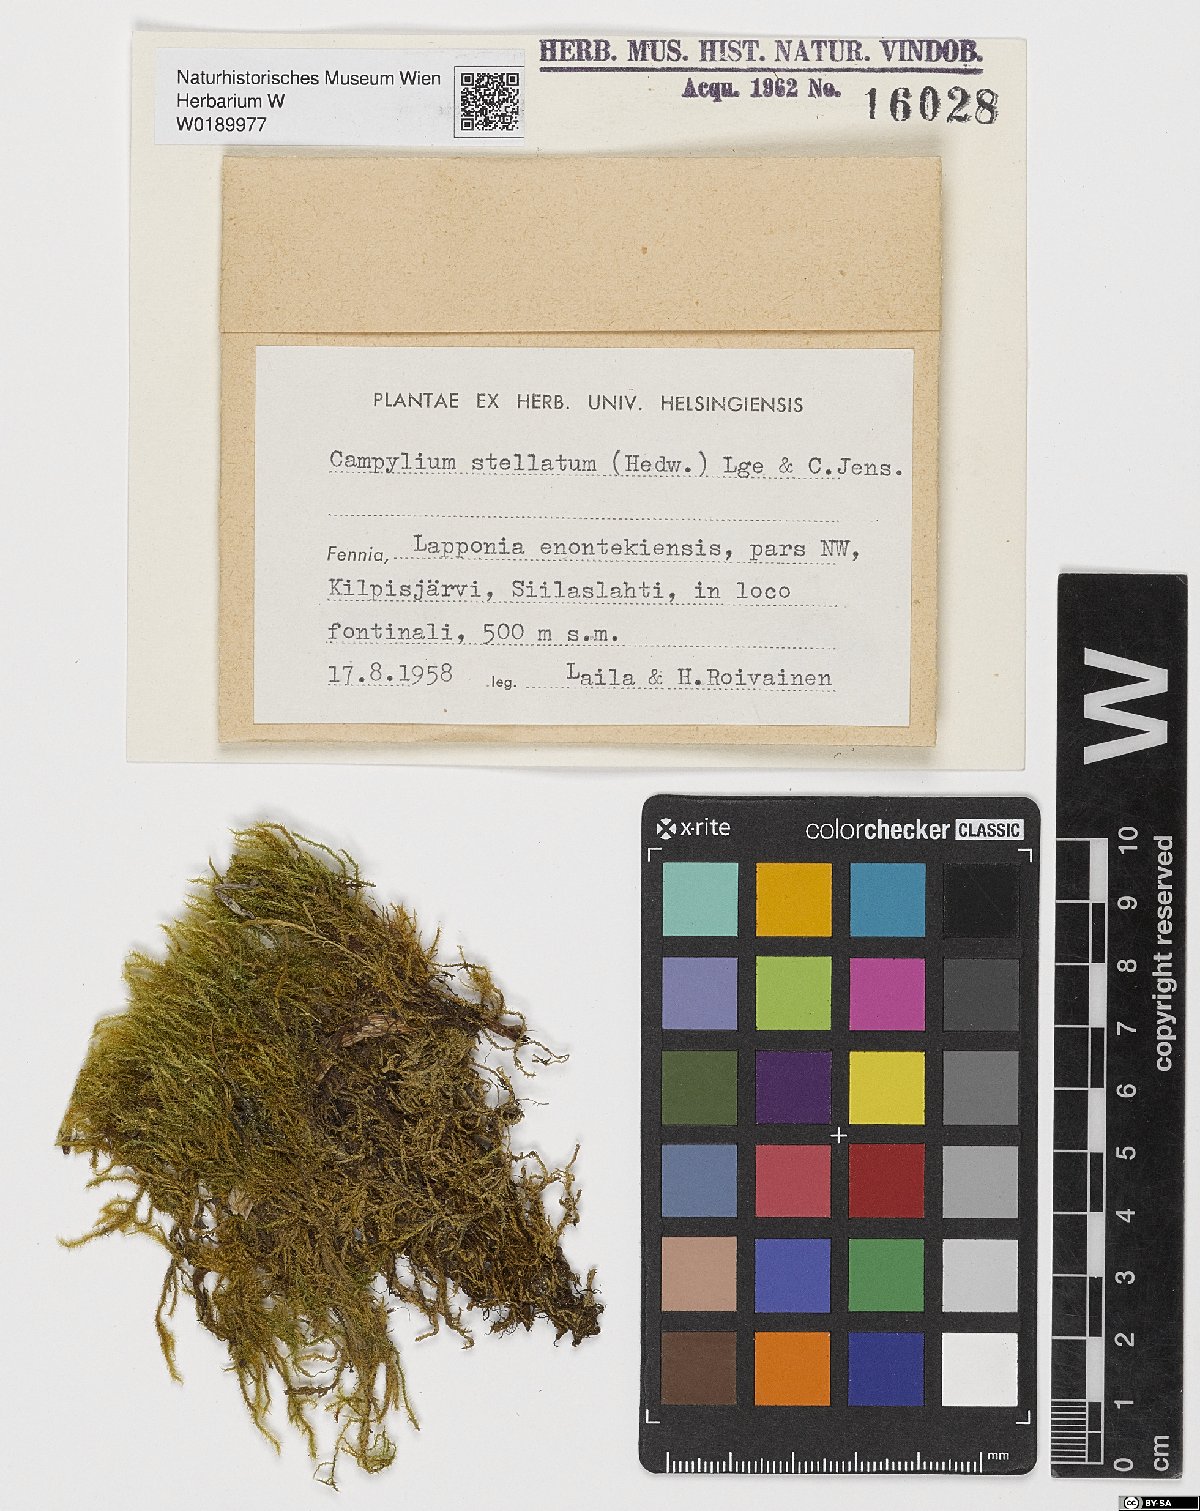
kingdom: Plantae
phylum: Bryophyta
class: Bryopsida
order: Hypnales
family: Amblystegiaceae
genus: Campylium
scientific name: Campylium stellatum
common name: Yellow starry fen moss
